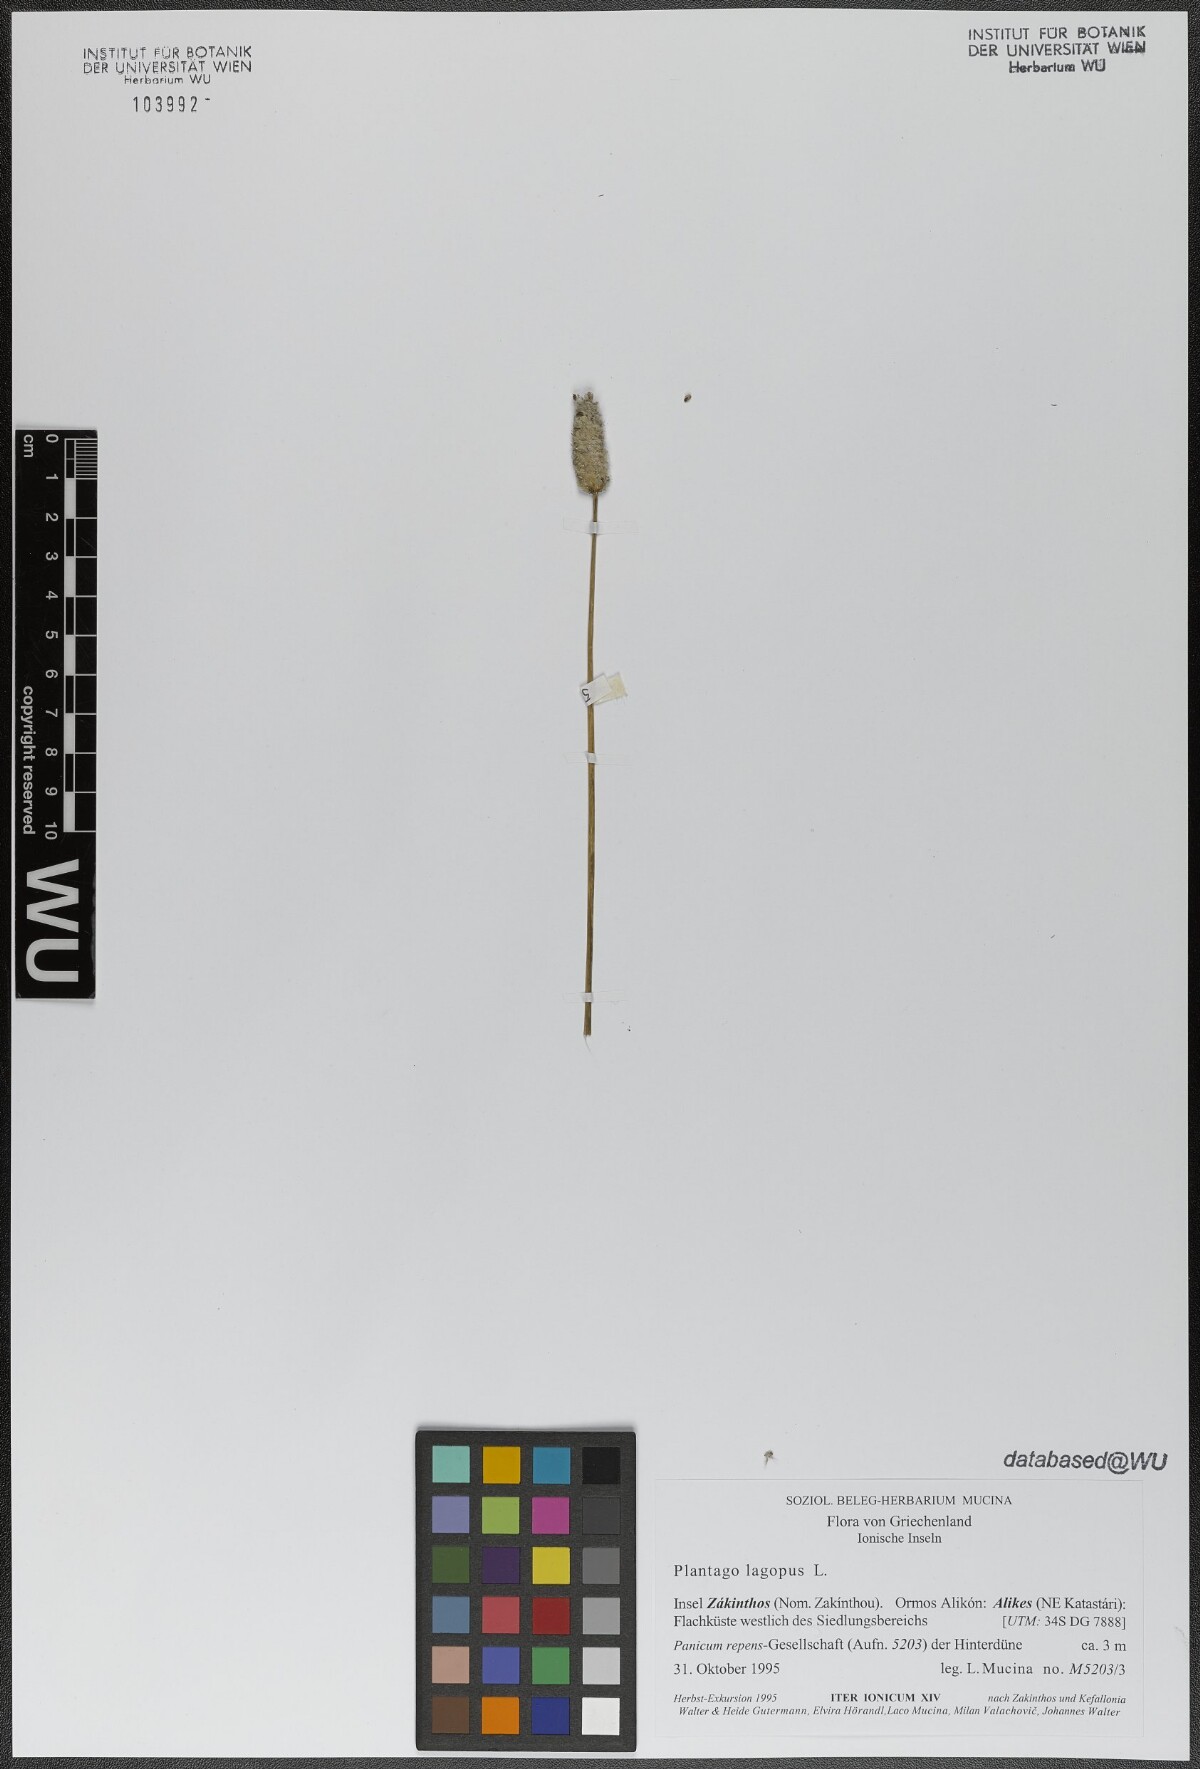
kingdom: Plantae
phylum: Tracheophyta
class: Magnoliopsida
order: Lamiales
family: Plantaginaceae
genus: Plantago
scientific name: Plantago lagopus
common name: Hare-foot plantain
